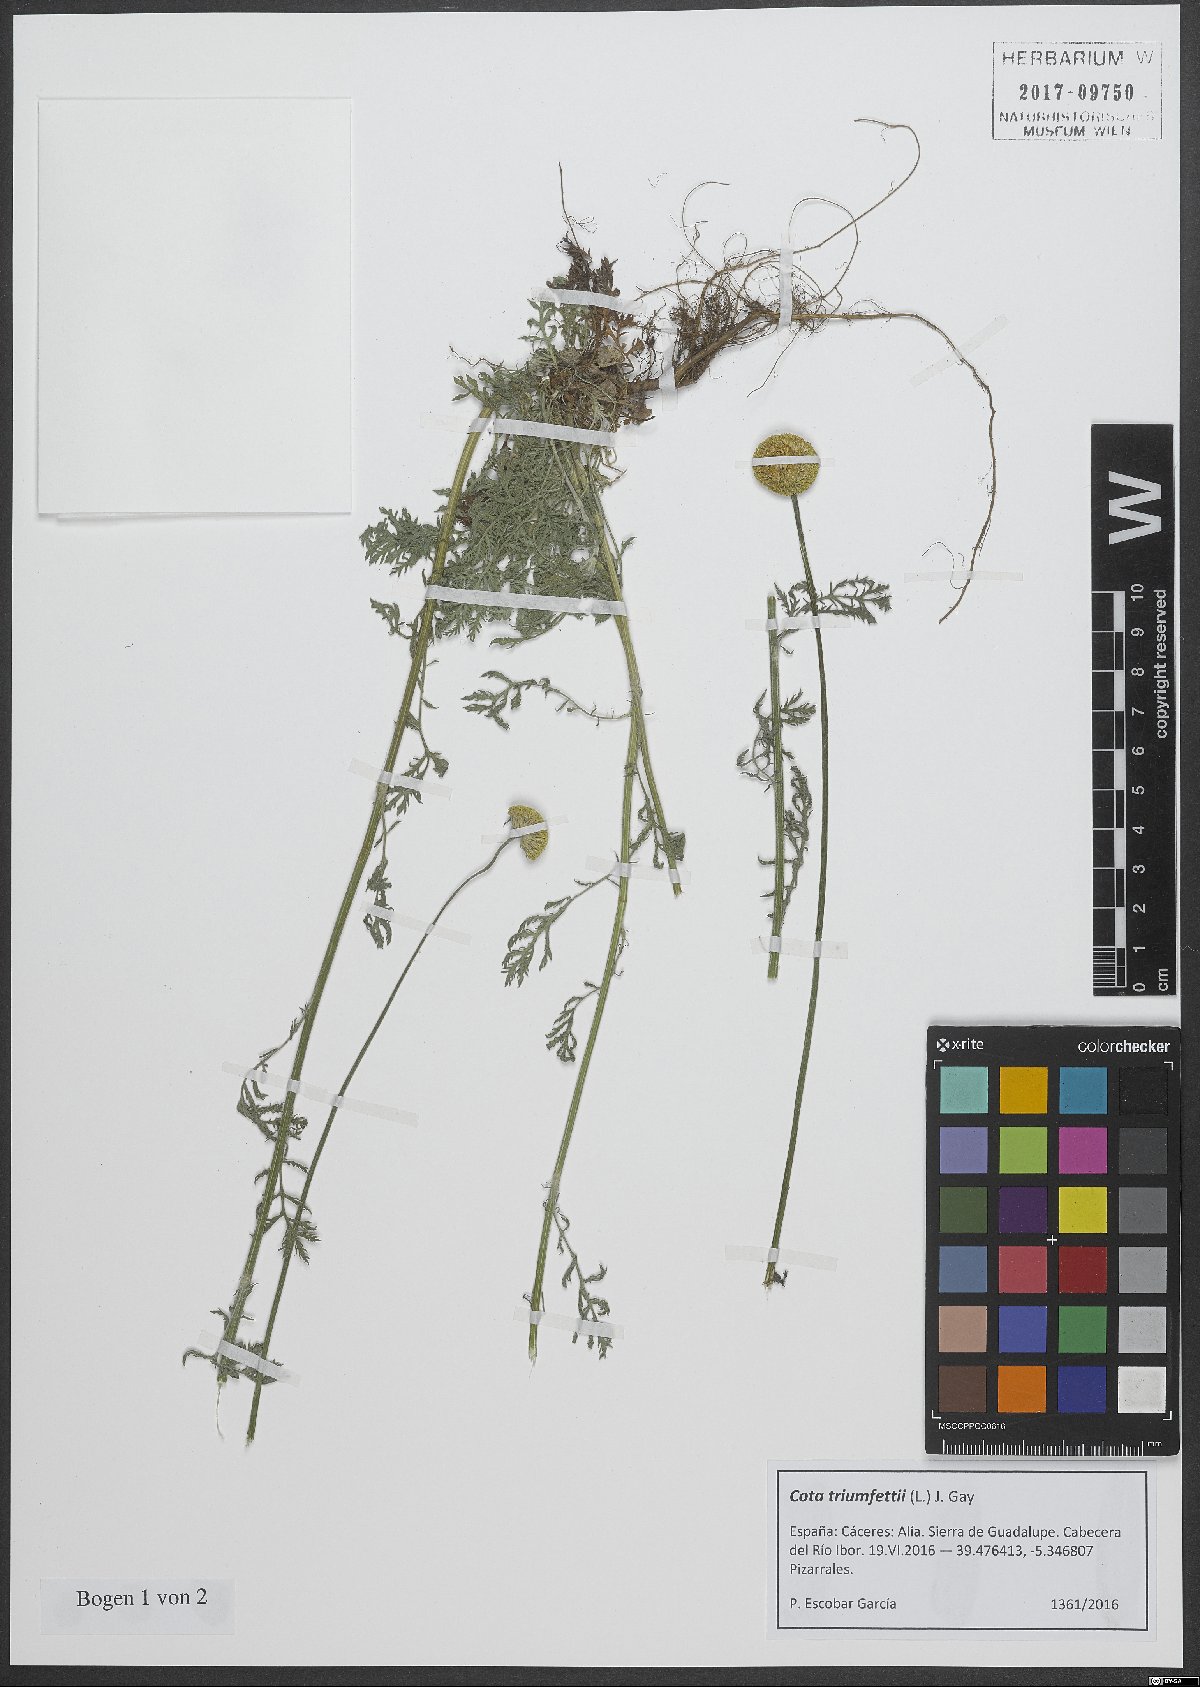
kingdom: Plantae
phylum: Tracheophyta
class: Magnoliopsida
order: Asterales
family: Asteraceae
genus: Cota
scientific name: Cota triumfetti
